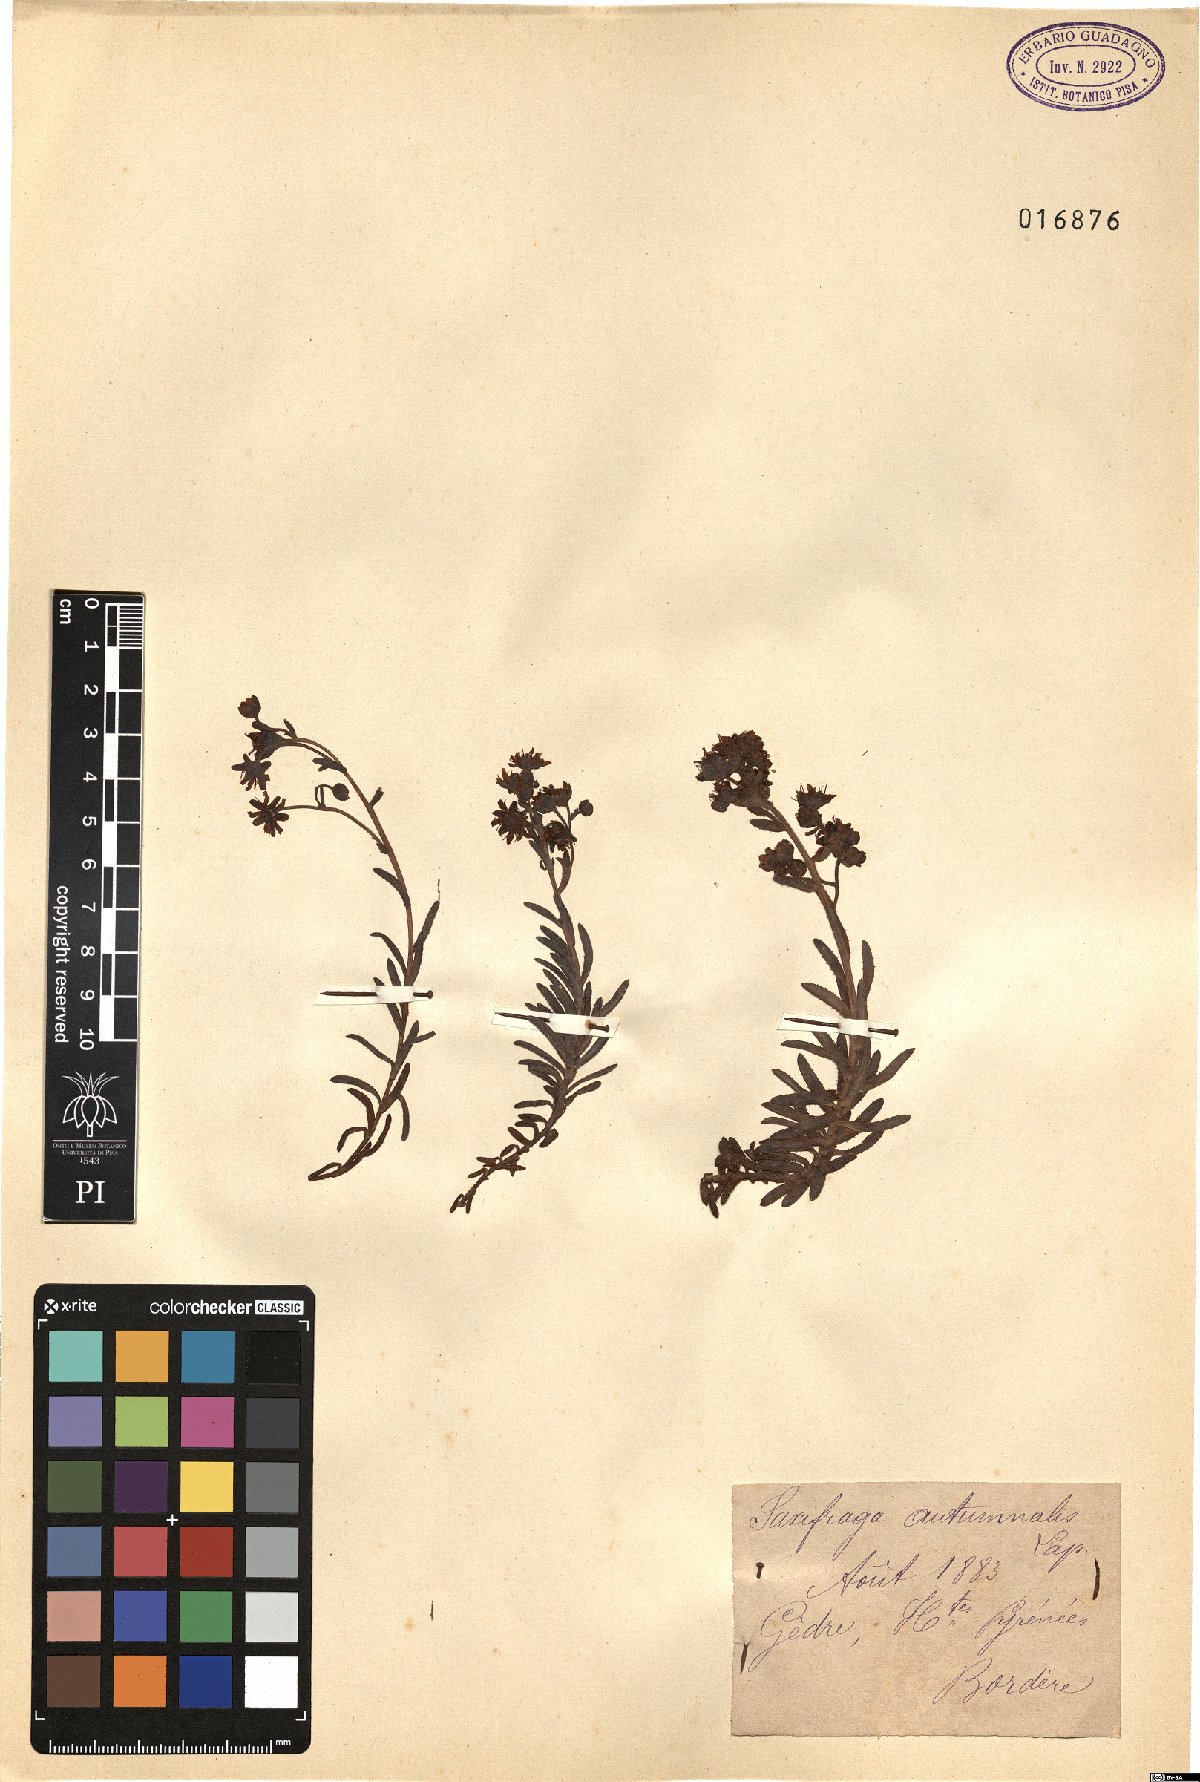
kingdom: Plantae
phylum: Tracheophyta
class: Magnoliopsida
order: Saxifragales
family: Saxifragaceae
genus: Saxifraga
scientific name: Saxifraga hirculus
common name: Yellow marsh saxifrage
